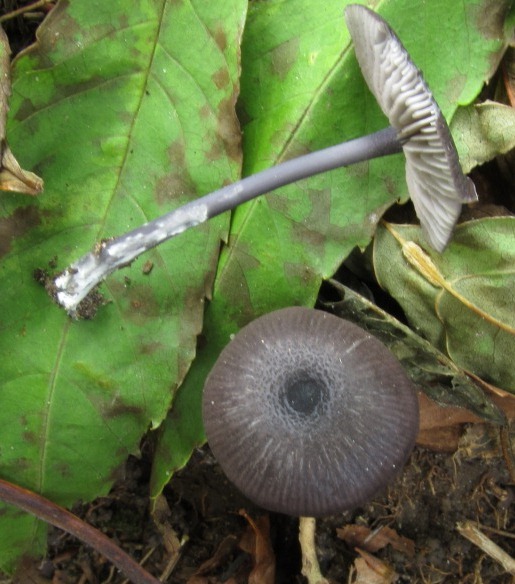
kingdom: Fungi
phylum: Basidiomycota
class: Agaricomycetes
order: Agaricales
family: Entolomataceae
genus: Entoloma
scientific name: Entoloma
